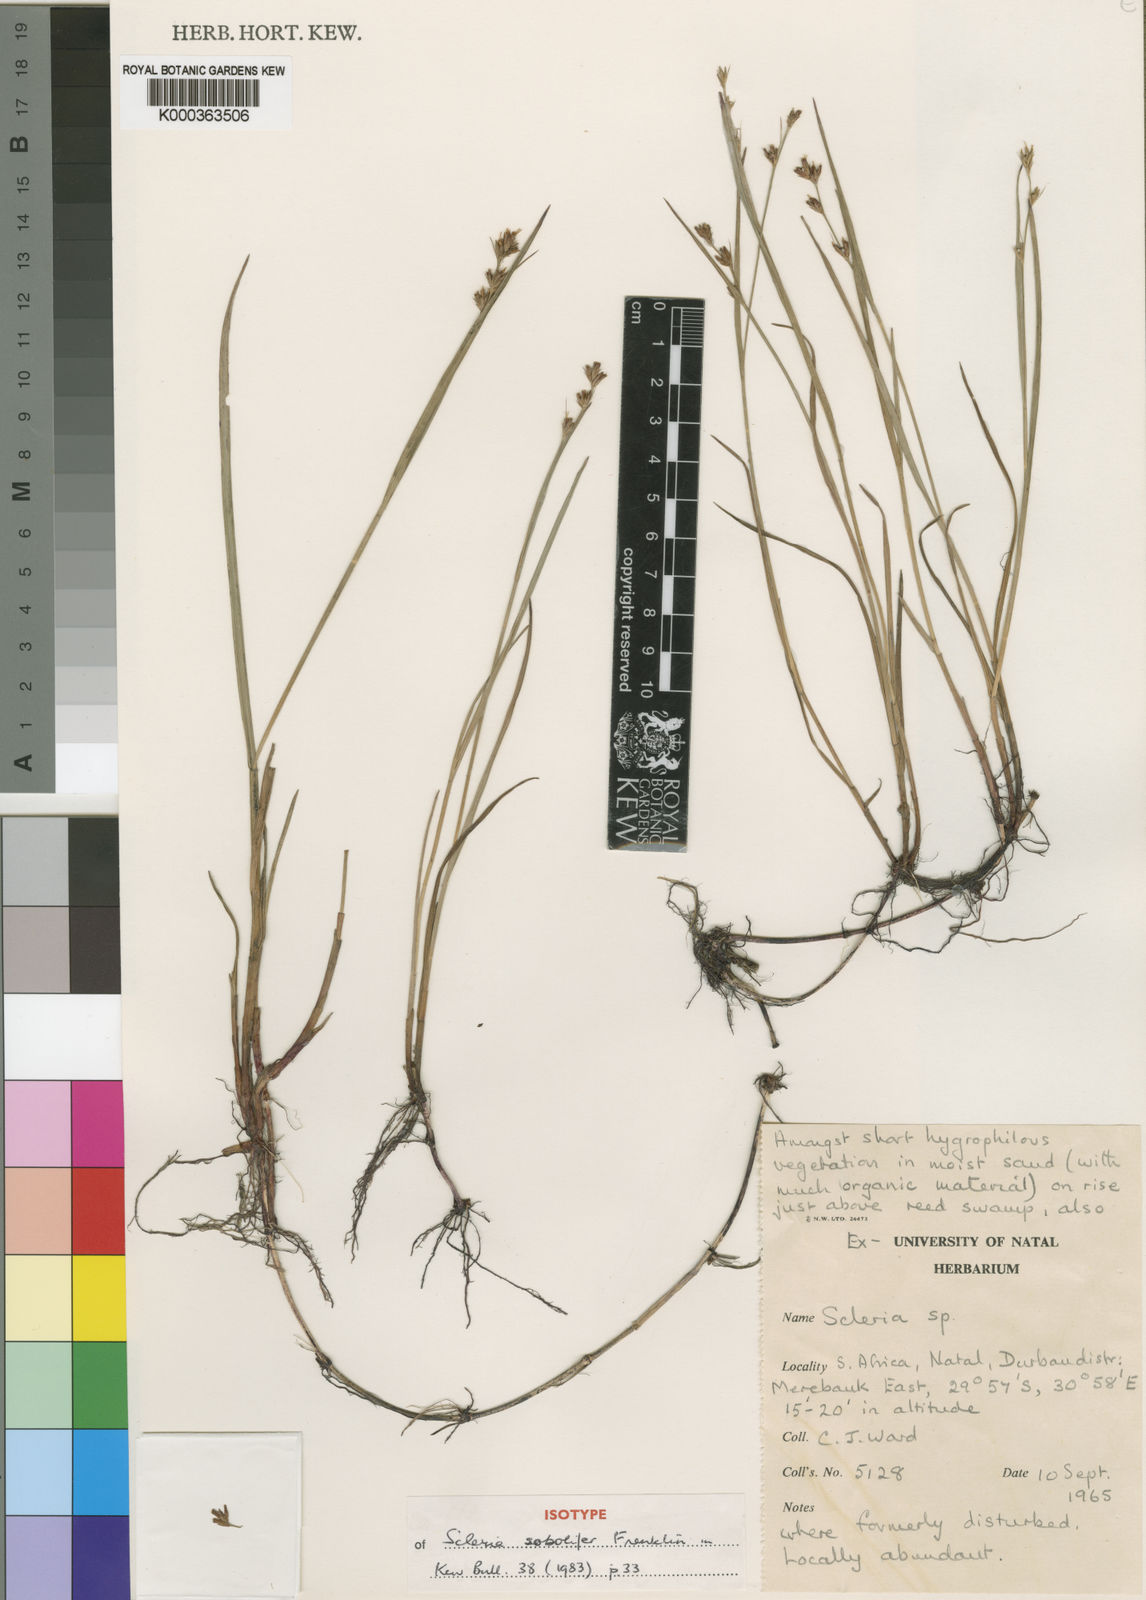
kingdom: Plantae
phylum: Tracheophyta
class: Liliopsida
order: Poales
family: Cyperaceae
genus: Scleria
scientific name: Scleria
